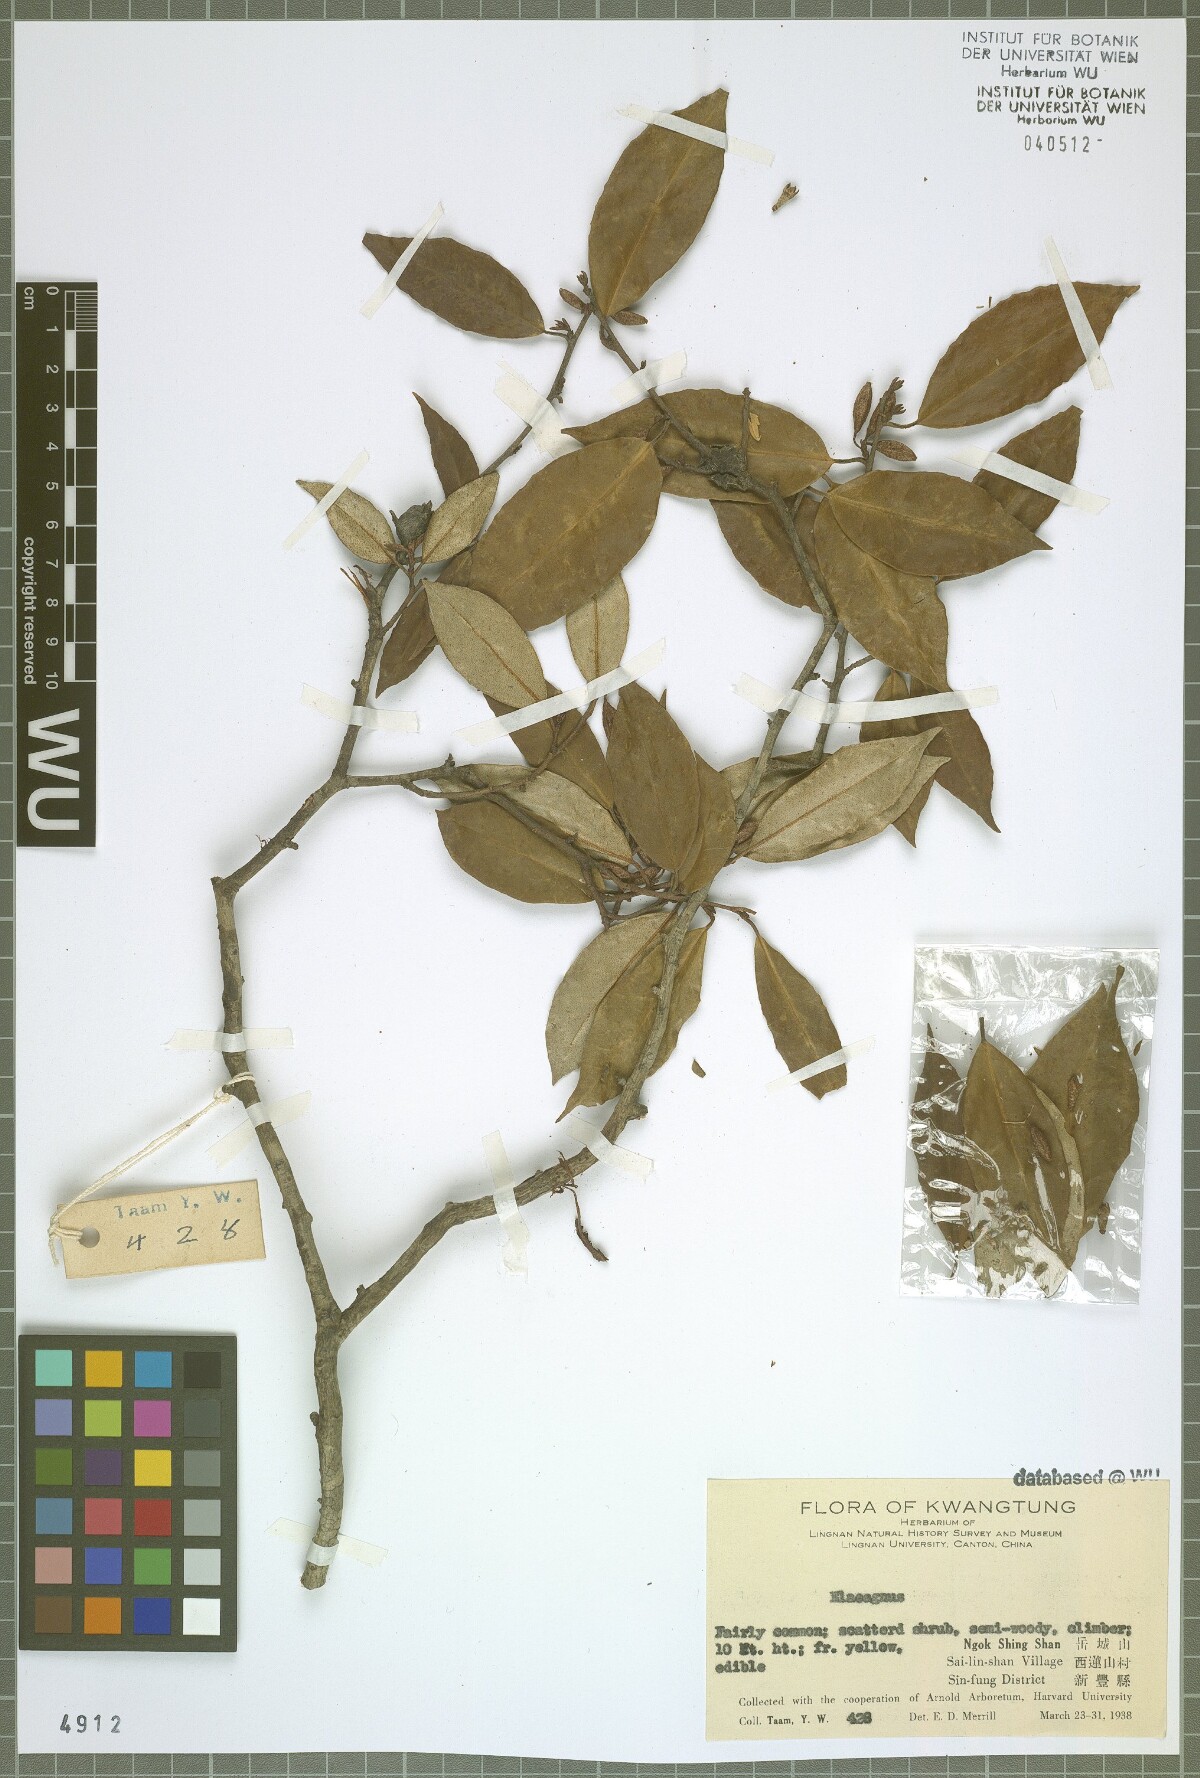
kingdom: Plantae
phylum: Tracheophyta
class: Magnoliopsida
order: Rosales
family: Elaeagnaceae
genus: Elaeagnus
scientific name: Elaeagnus
